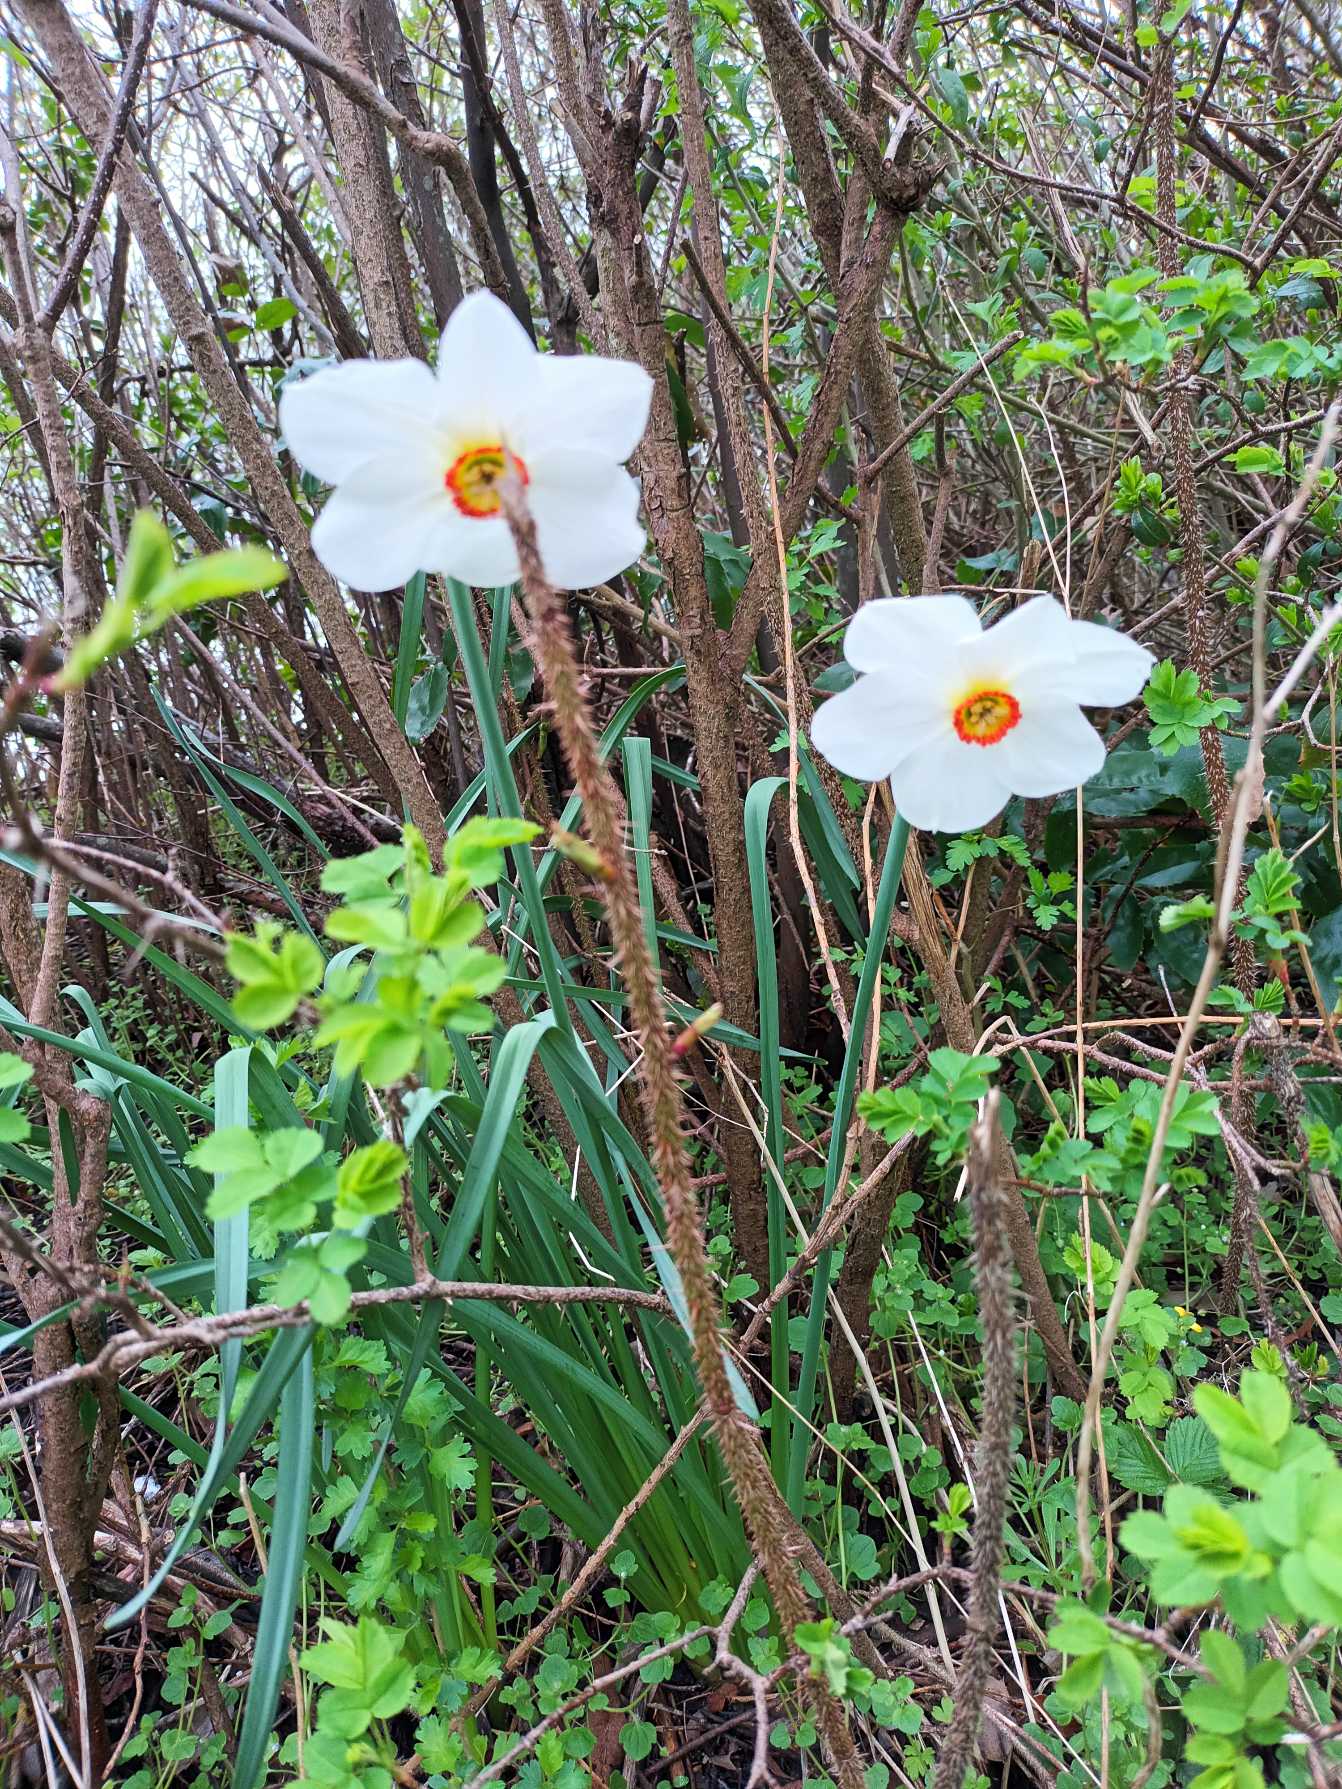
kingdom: Plantae
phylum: Tracheophyta
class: Liliopsida
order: Asparagales
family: Amaryllidaceae
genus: Narcissus
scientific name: Narcissus poeticus
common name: Pinselilje
